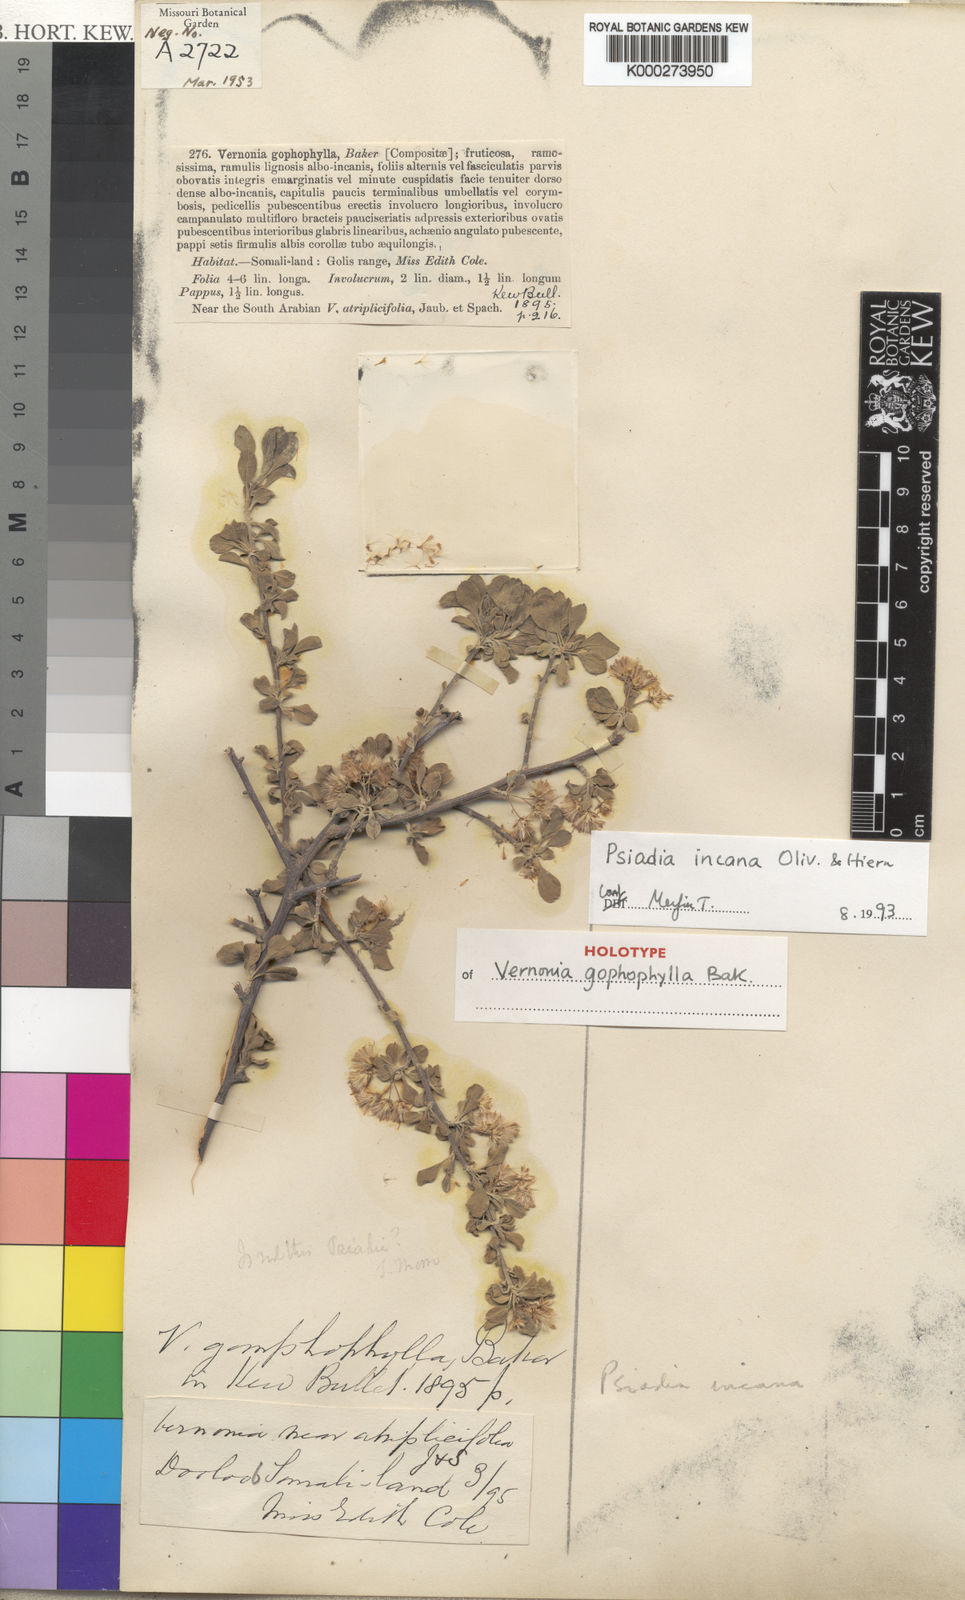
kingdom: Plantae
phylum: Tracheophyta
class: Magnoliopsida
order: Asterales
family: Asteraceae
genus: Psiadia
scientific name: Psiadia incana
